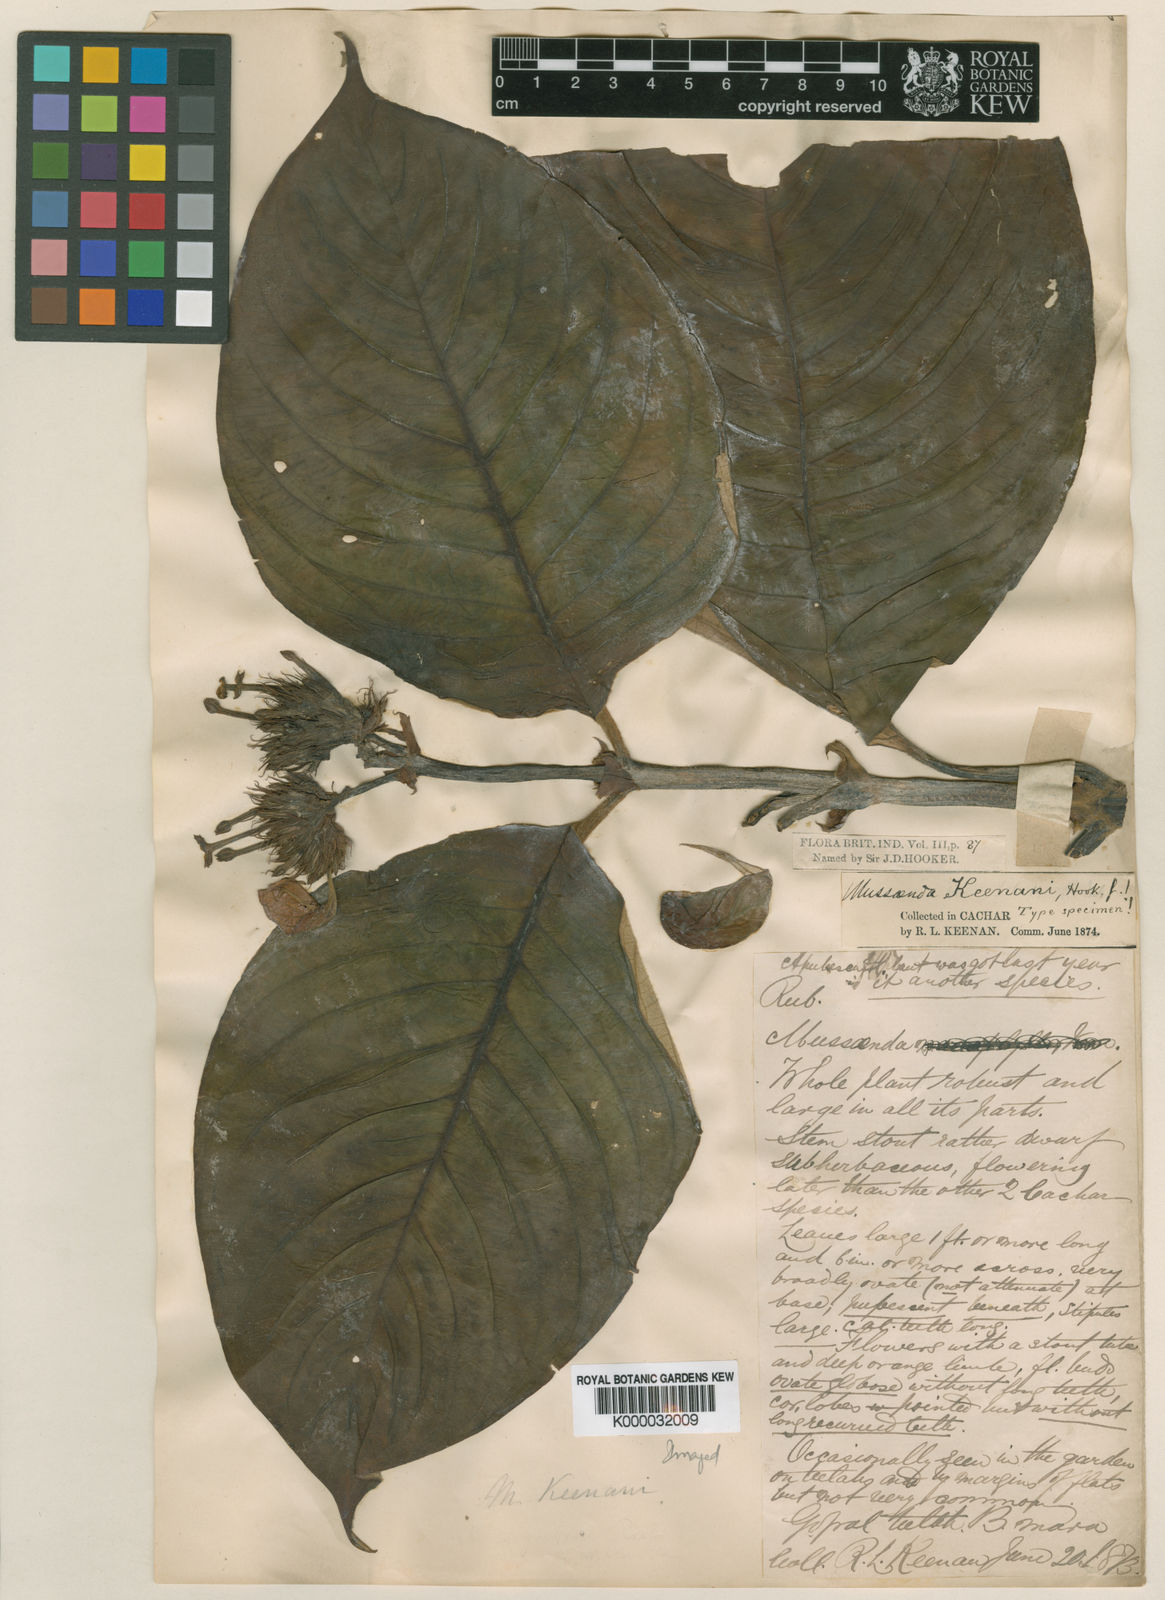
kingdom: Plantae
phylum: Tracheophyta
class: Magnoliopsida
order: Gentianales
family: Rubiaceae
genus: Mussaenda
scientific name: Mussaenda keenanii
